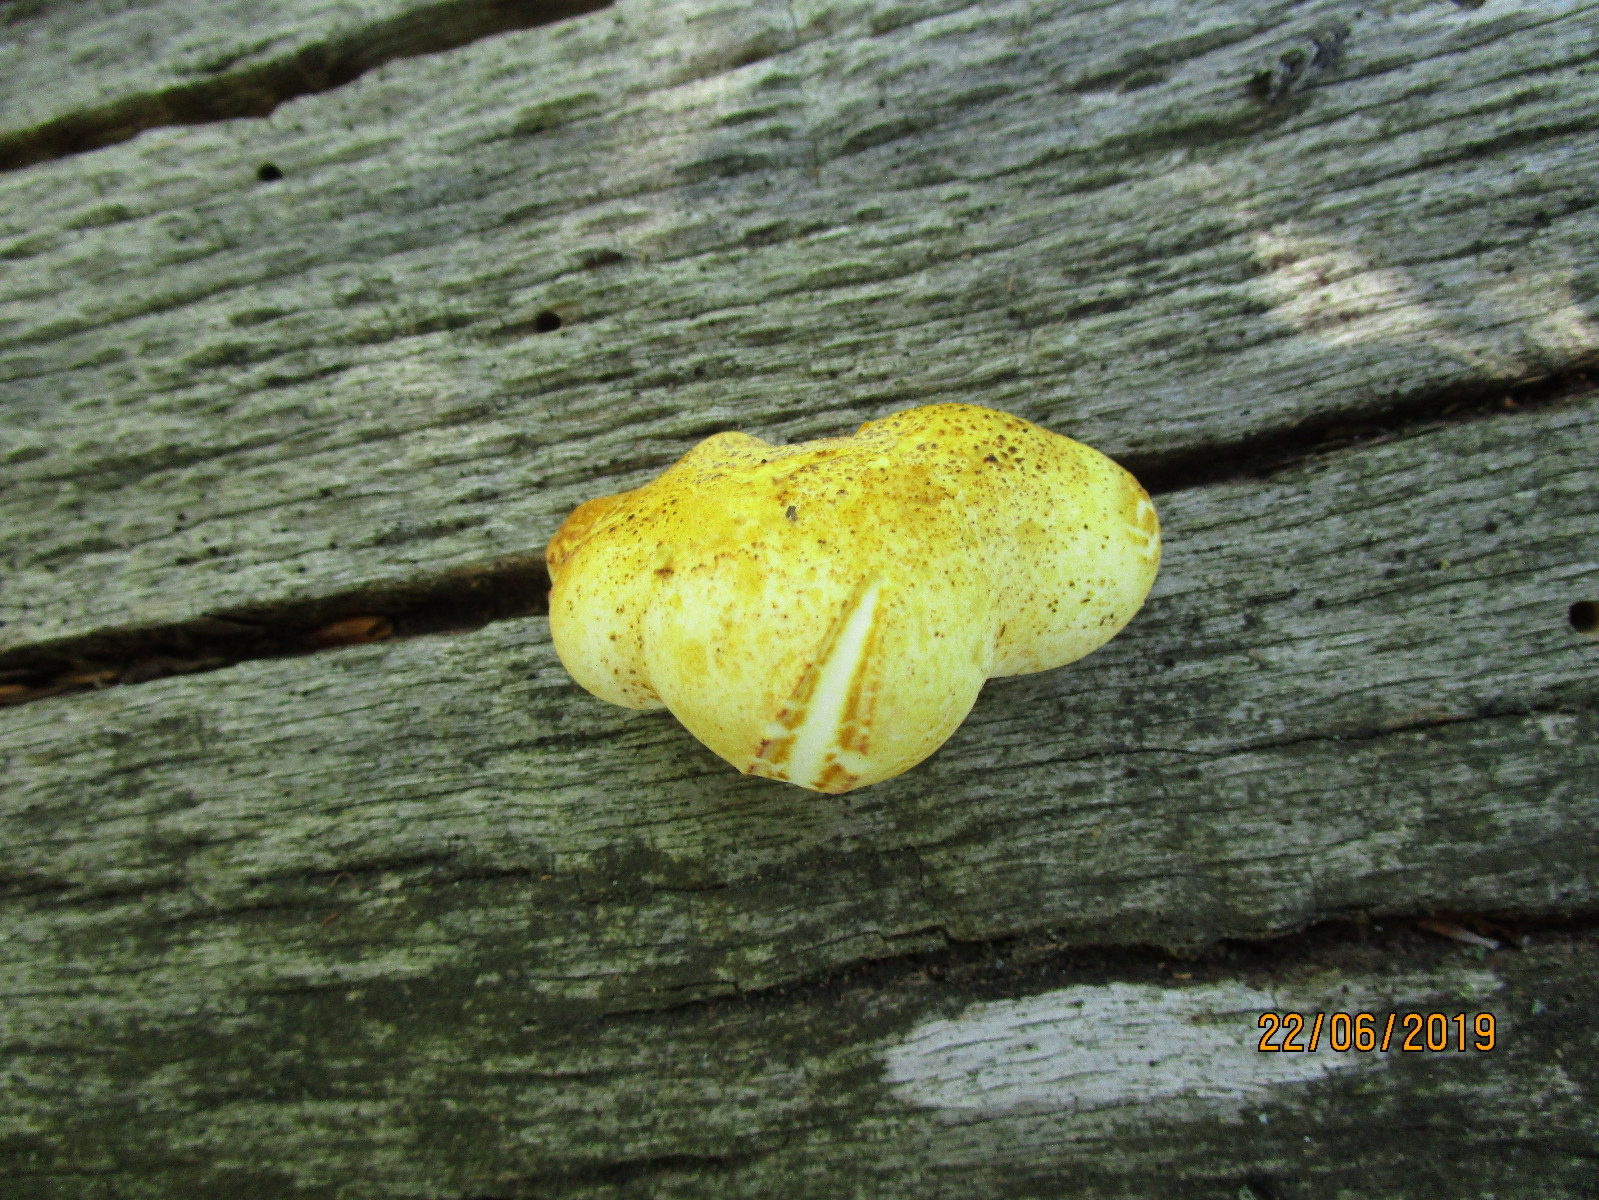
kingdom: Fungi
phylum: Basidiomycota
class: Agaricomycetes
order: Polyporales
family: Fomitopsidaceae
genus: Buglossoporus
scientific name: Buglossoporus quercinus
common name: egetunge
